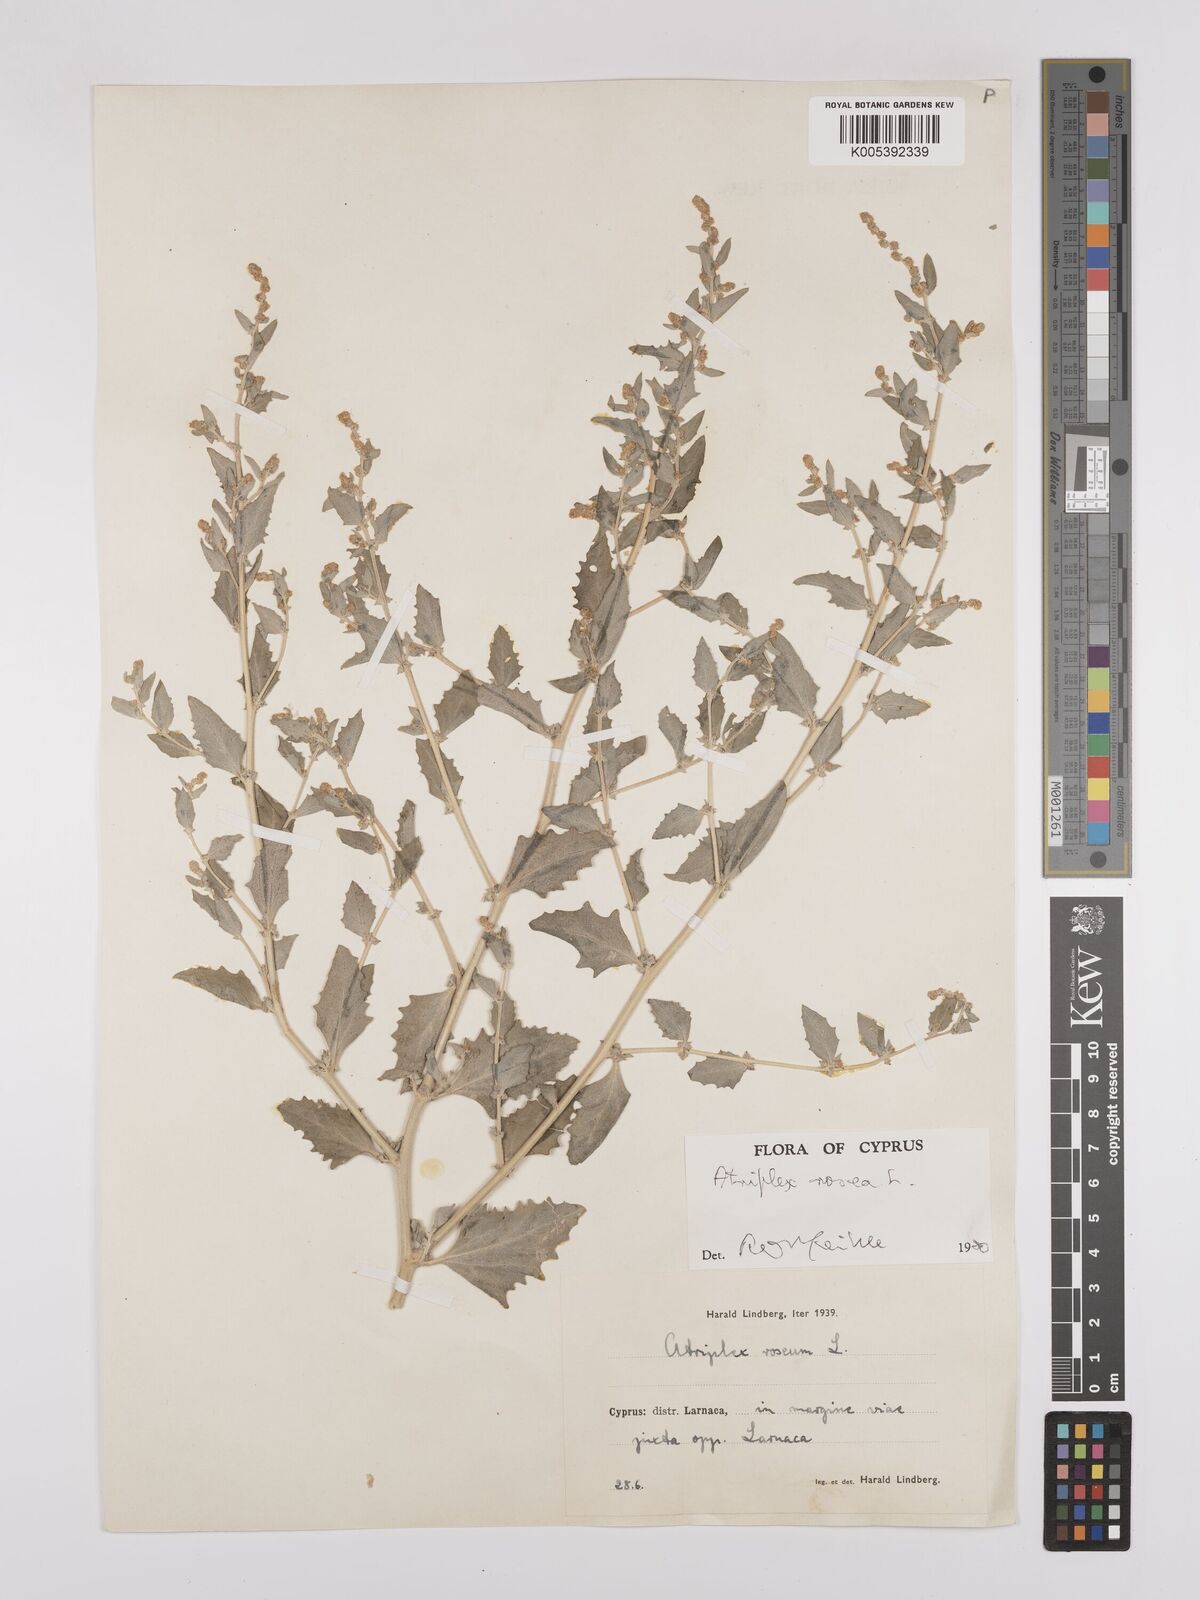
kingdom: Plantae
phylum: Tracheophyta
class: Magnoliopsida
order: Caryophyllales
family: Amaranthaceae
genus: Atriplex
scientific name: Atriplex
